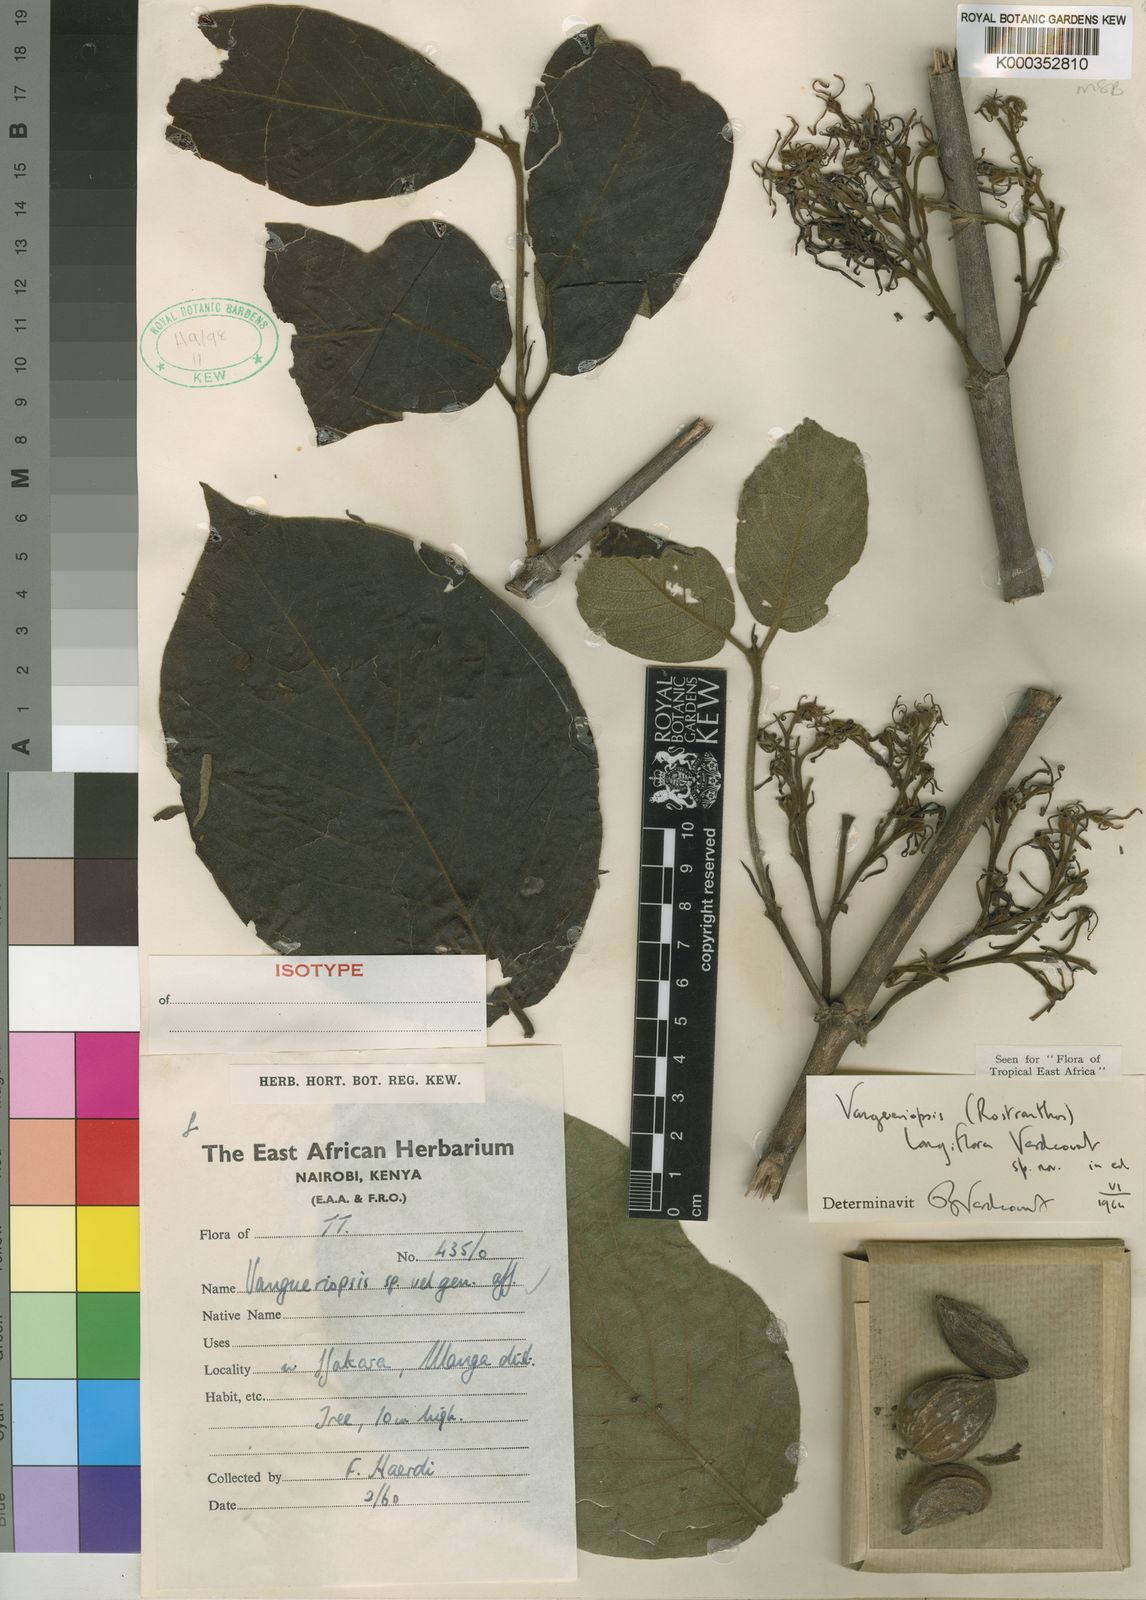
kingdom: Plantae
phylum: Tracheophyta
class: Magnoliopsida
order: Gentianales
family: Rubiaceae
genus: Vangueriopsis
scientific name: Vangueriopsis longiflora
